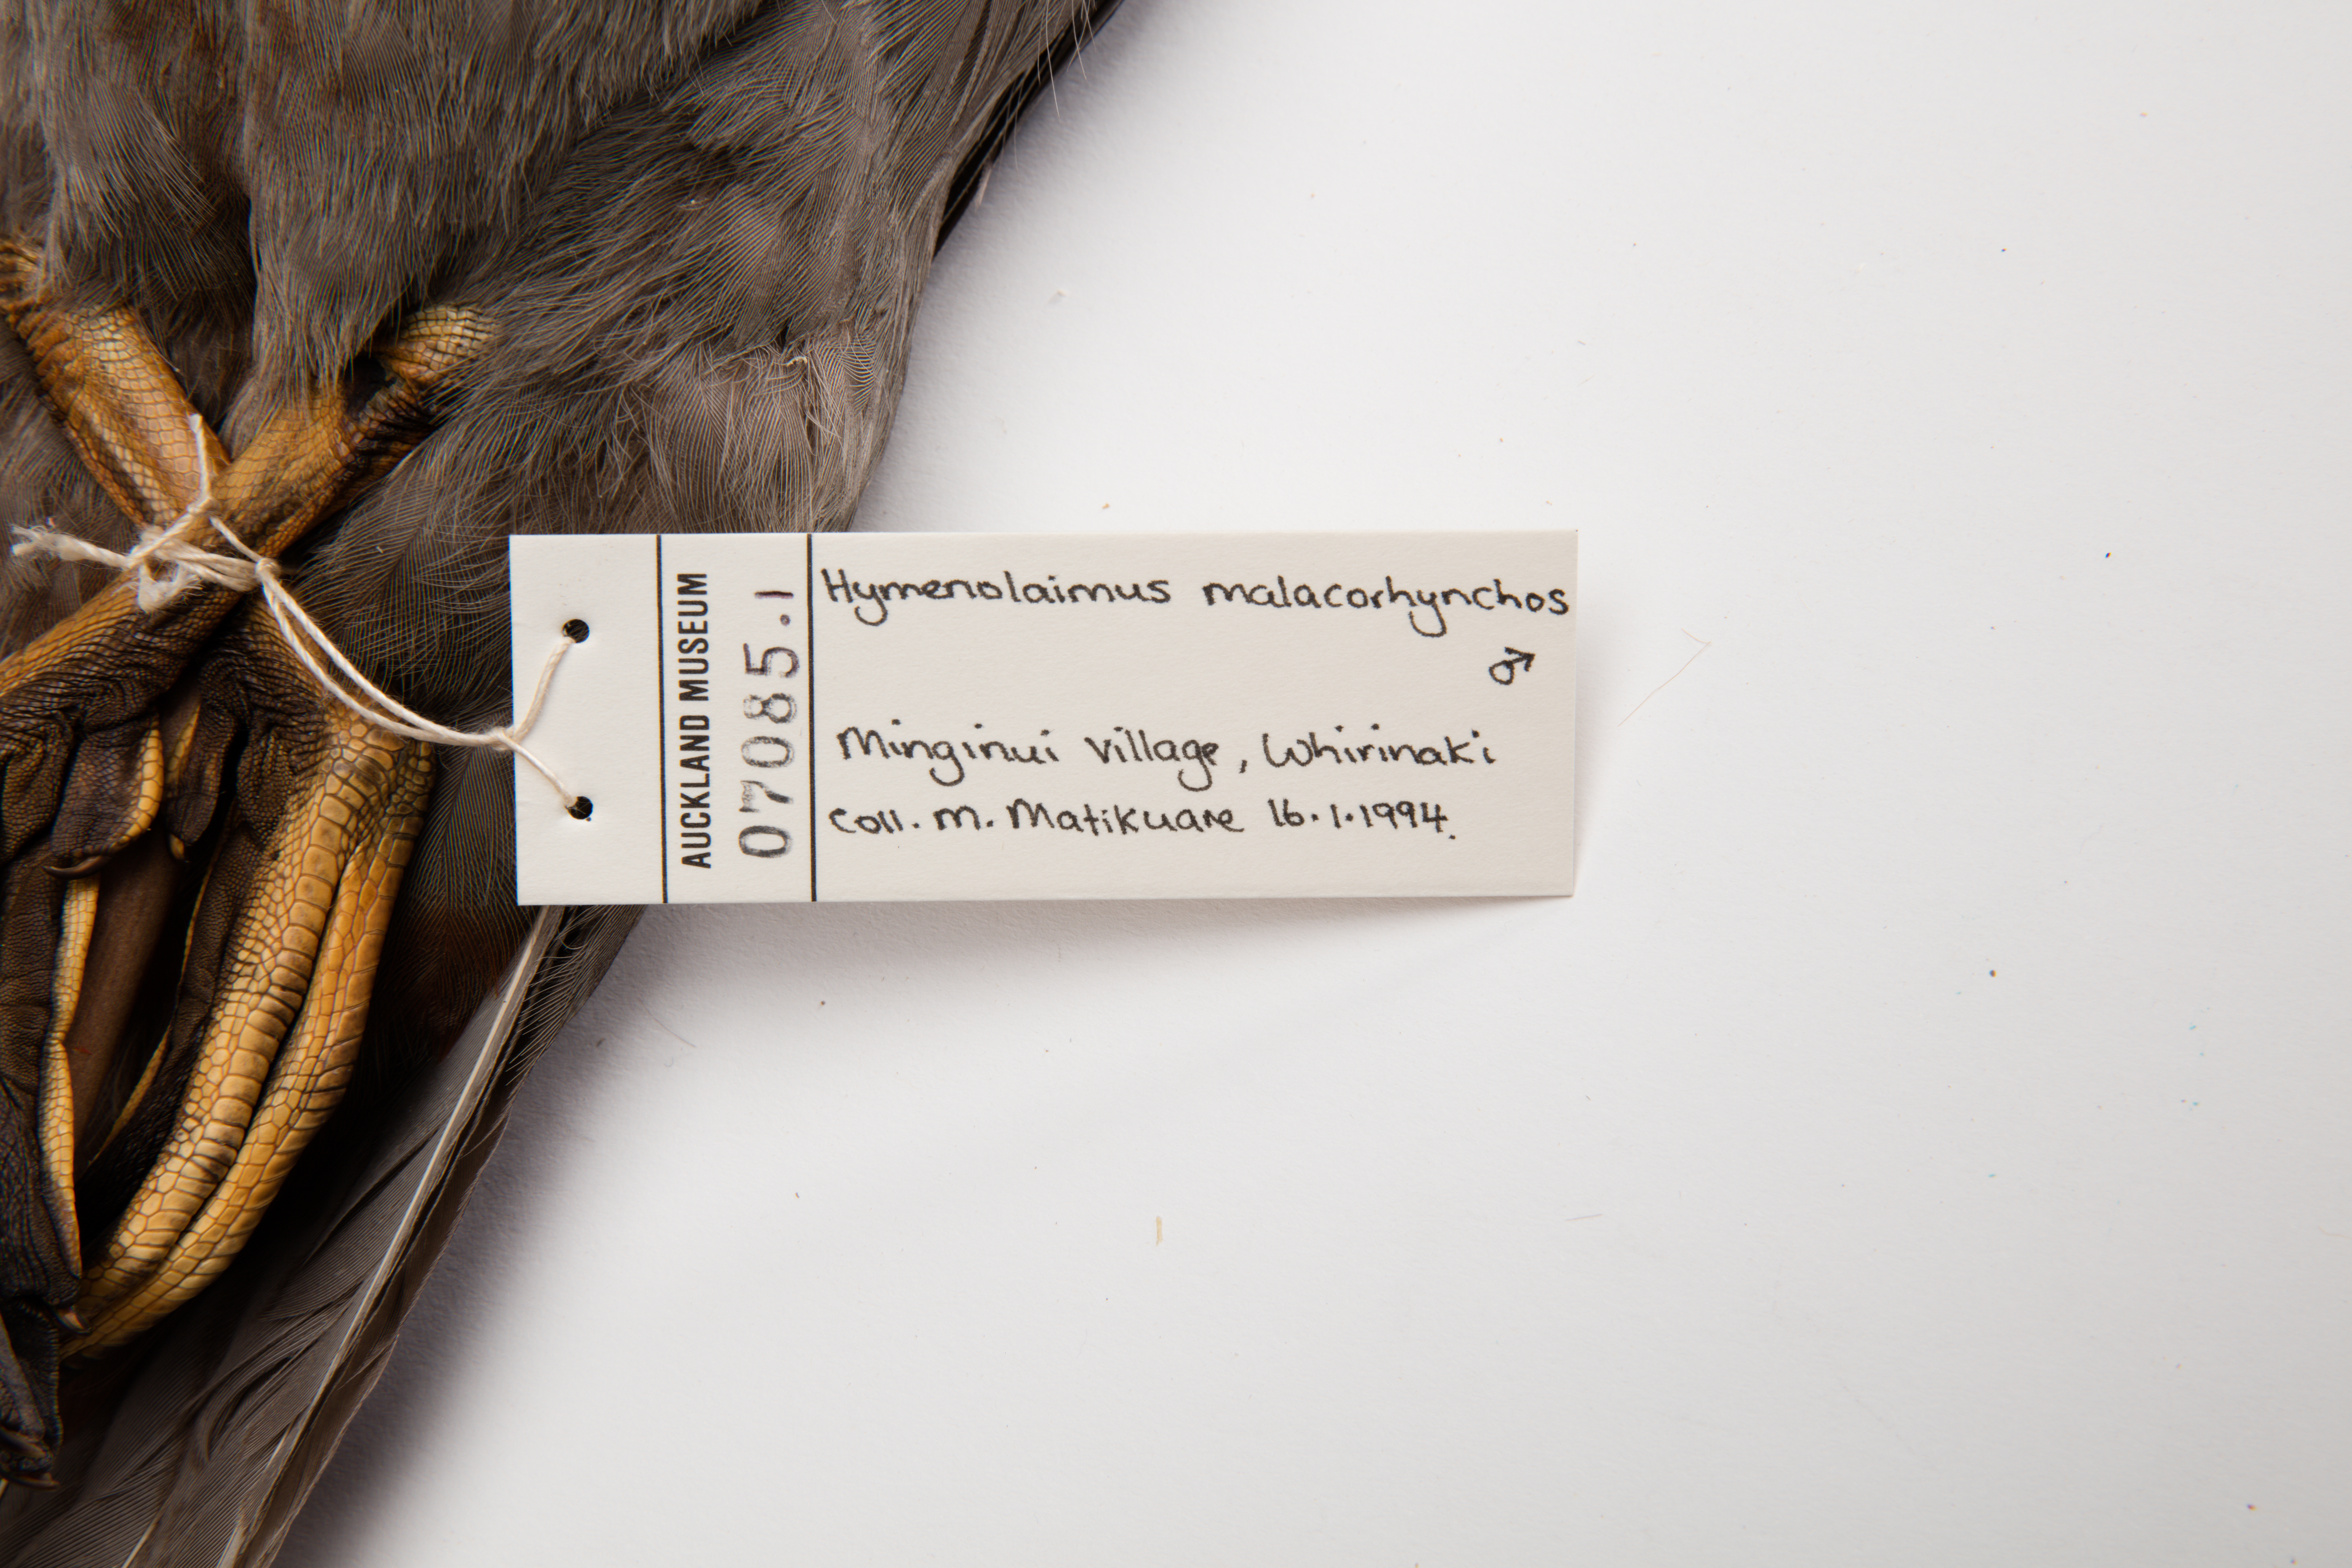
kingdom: Animalia
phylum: Chordata
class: Aves
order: Anseriformes
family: Anatidae
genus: Hymenolaimus
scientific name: Hymenolaimus malacorhynchos
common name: Blue duck
